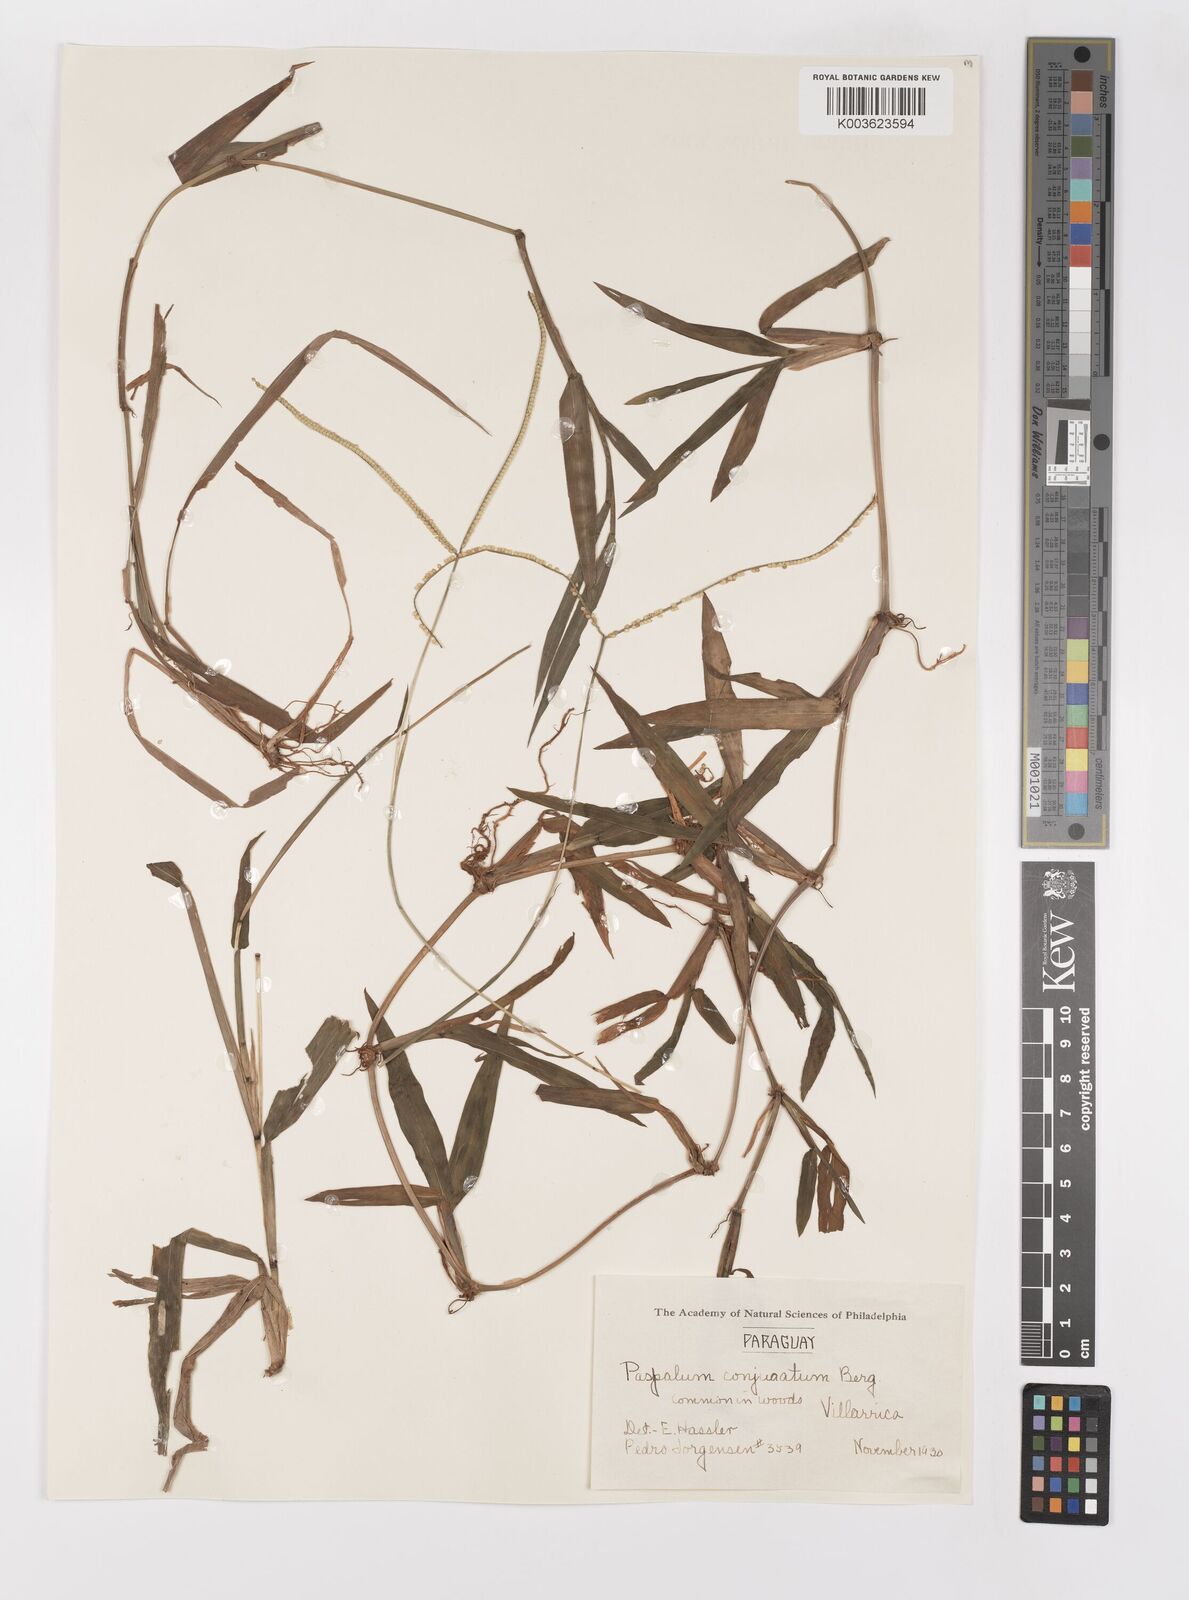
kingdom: Plantae
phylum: Tracheophyta
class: Liliopsida
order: Poales
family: Poaceae
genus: Paspalum
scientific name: Paspalum conjugatum
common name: Hilograss
